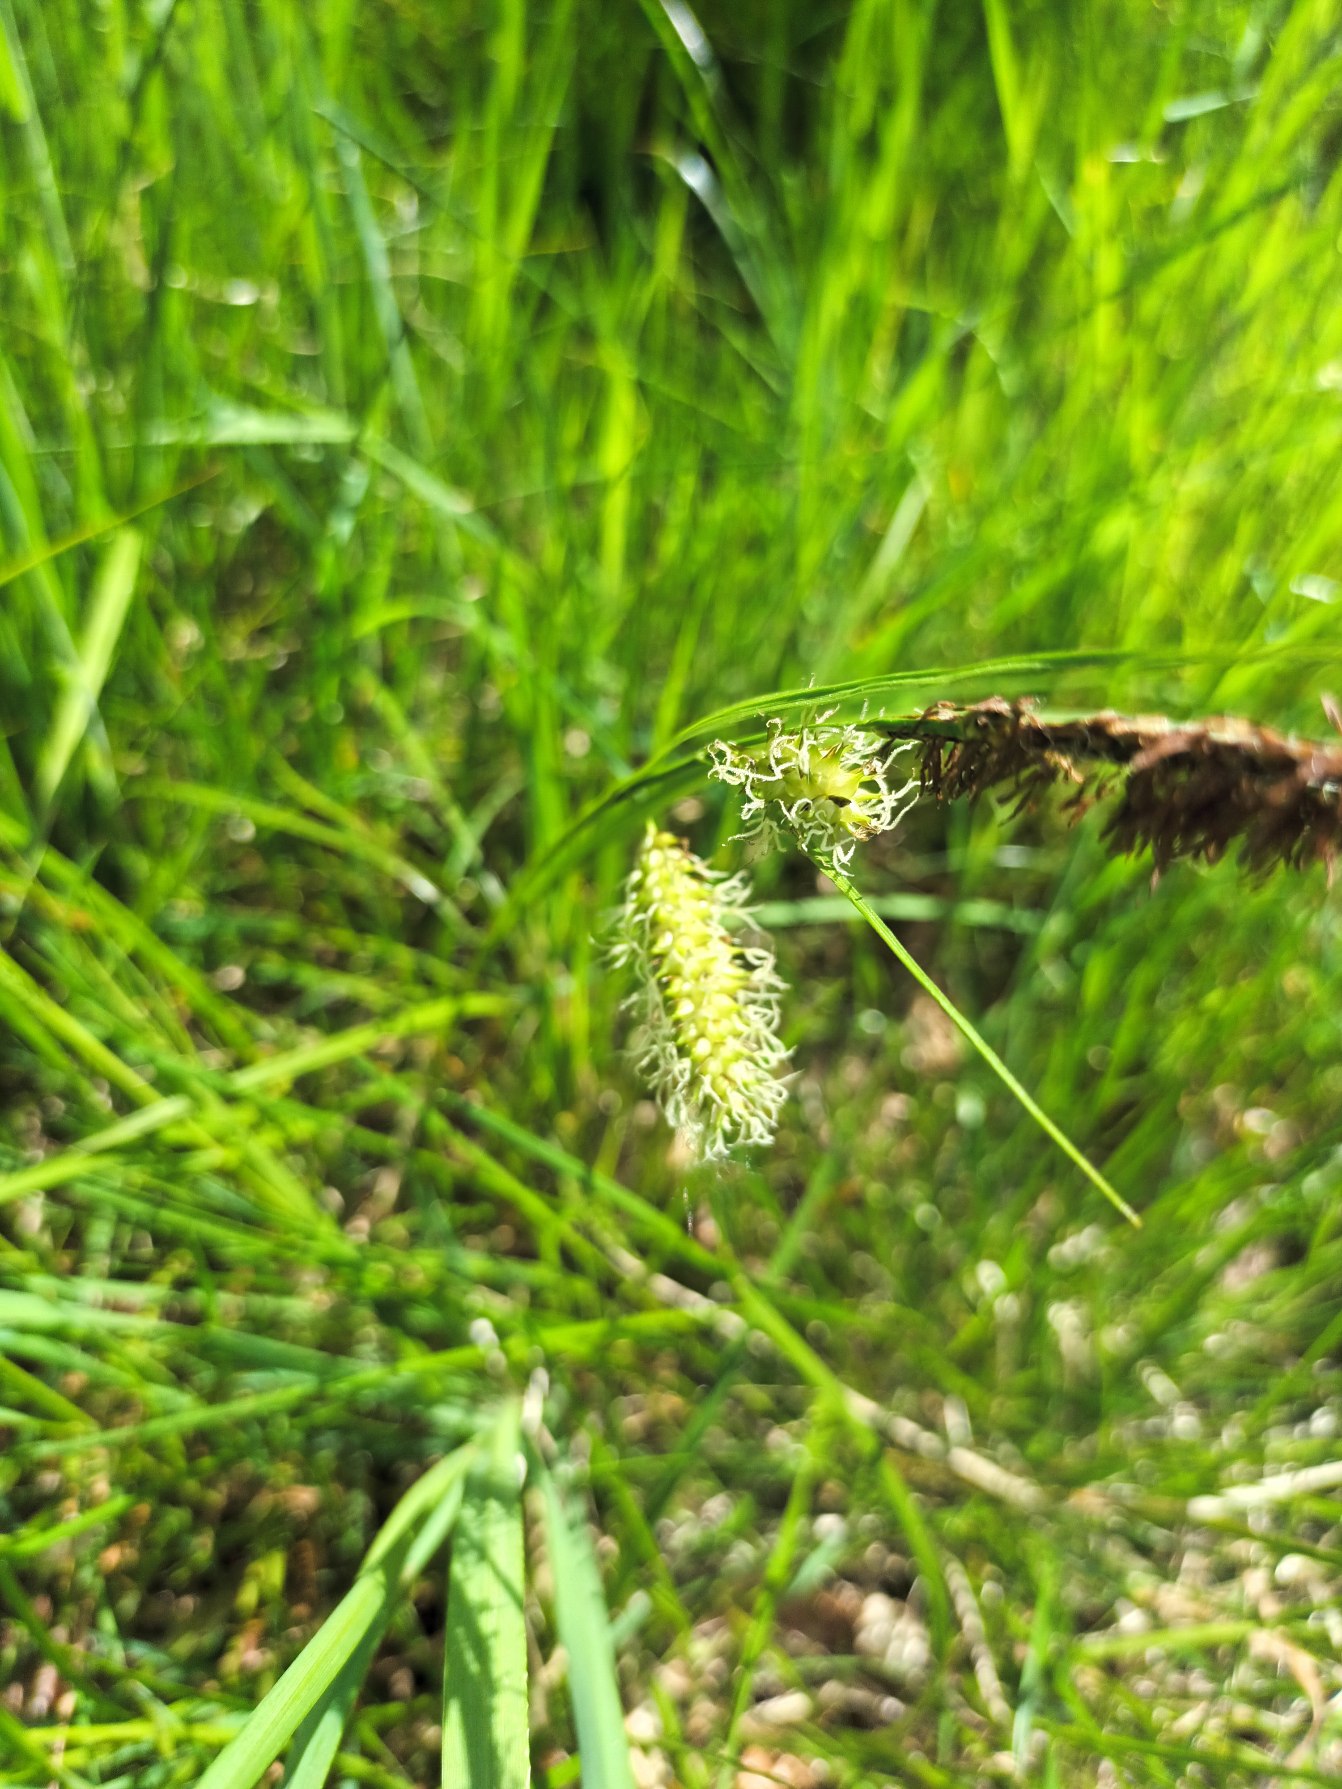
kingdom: Plantae
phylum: Tracheophyta
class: Liliopsida
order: Poales
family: Cyperaceae
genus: Carex
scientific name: Carex vesicaria
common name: Blære-star
